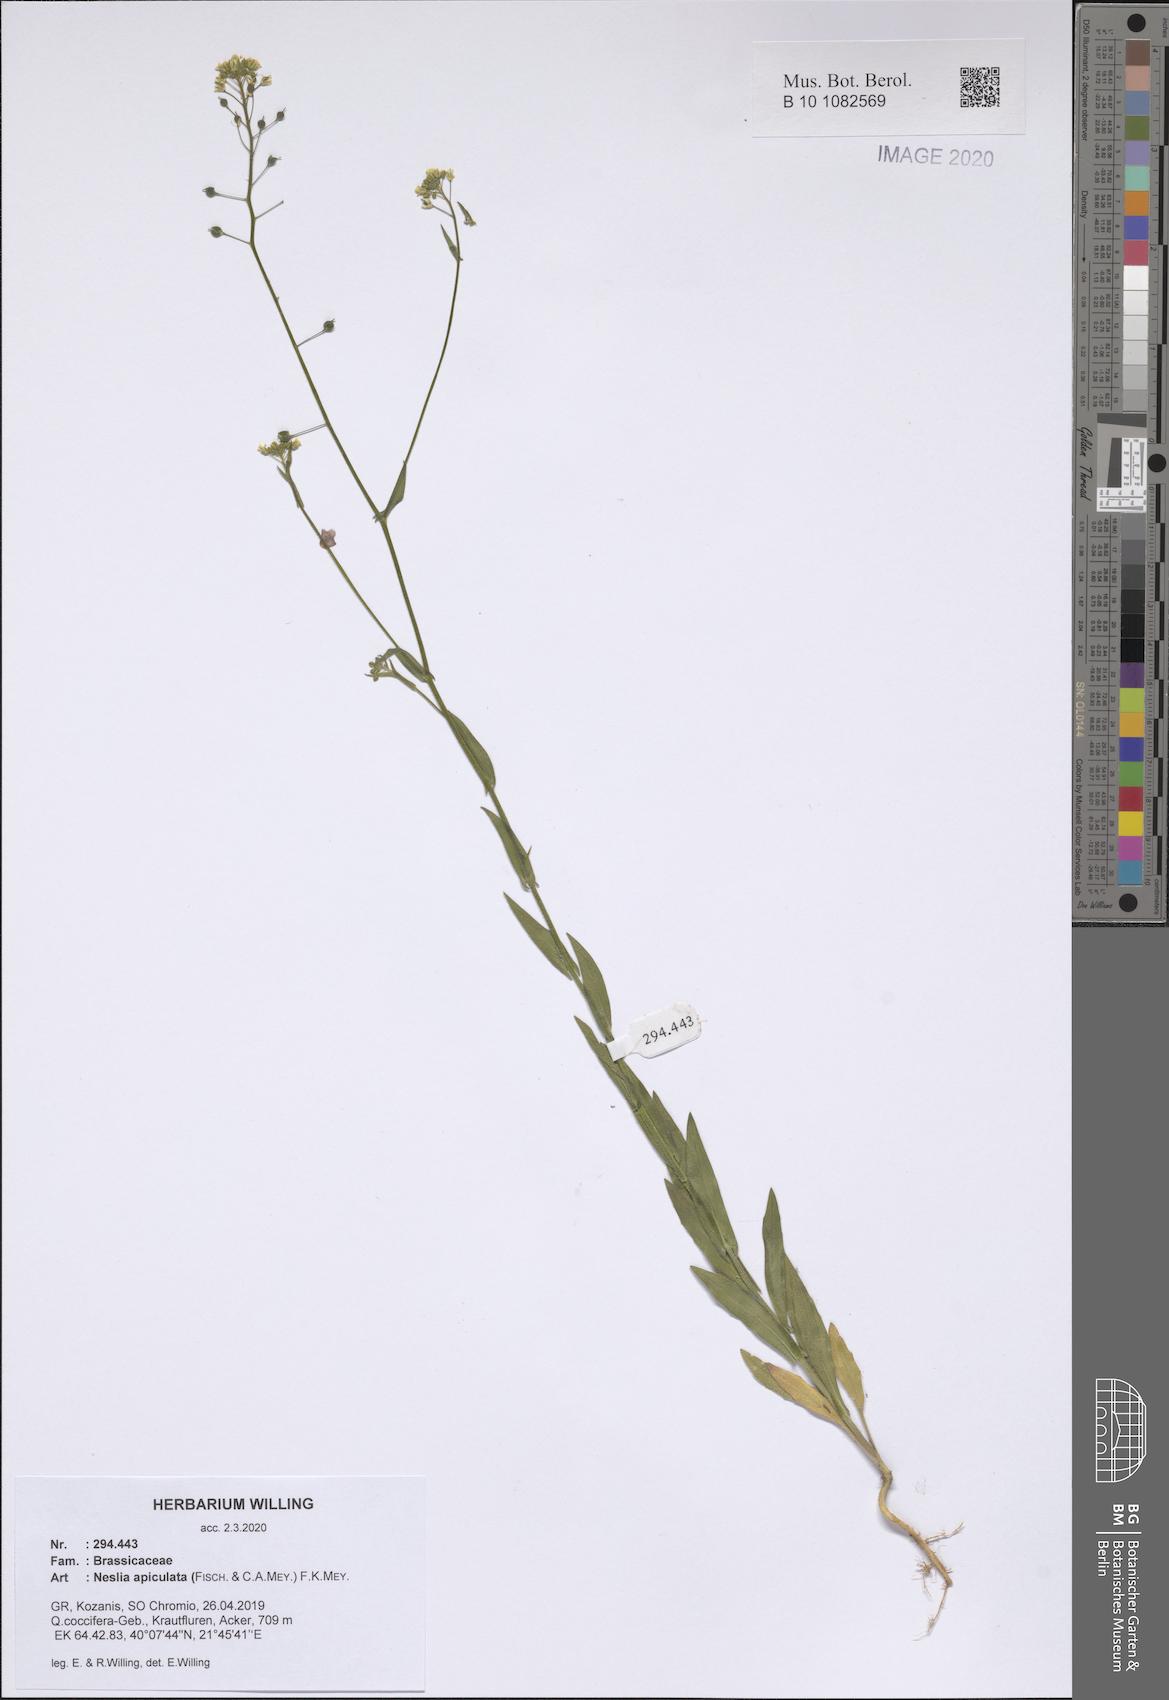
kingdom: Plantae
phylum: Tracheophyta
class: Magnoliopsida
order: Brassicales
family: Brassicaceae
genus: Neslia
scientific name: Neslia paniculata
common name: Ball mustard
